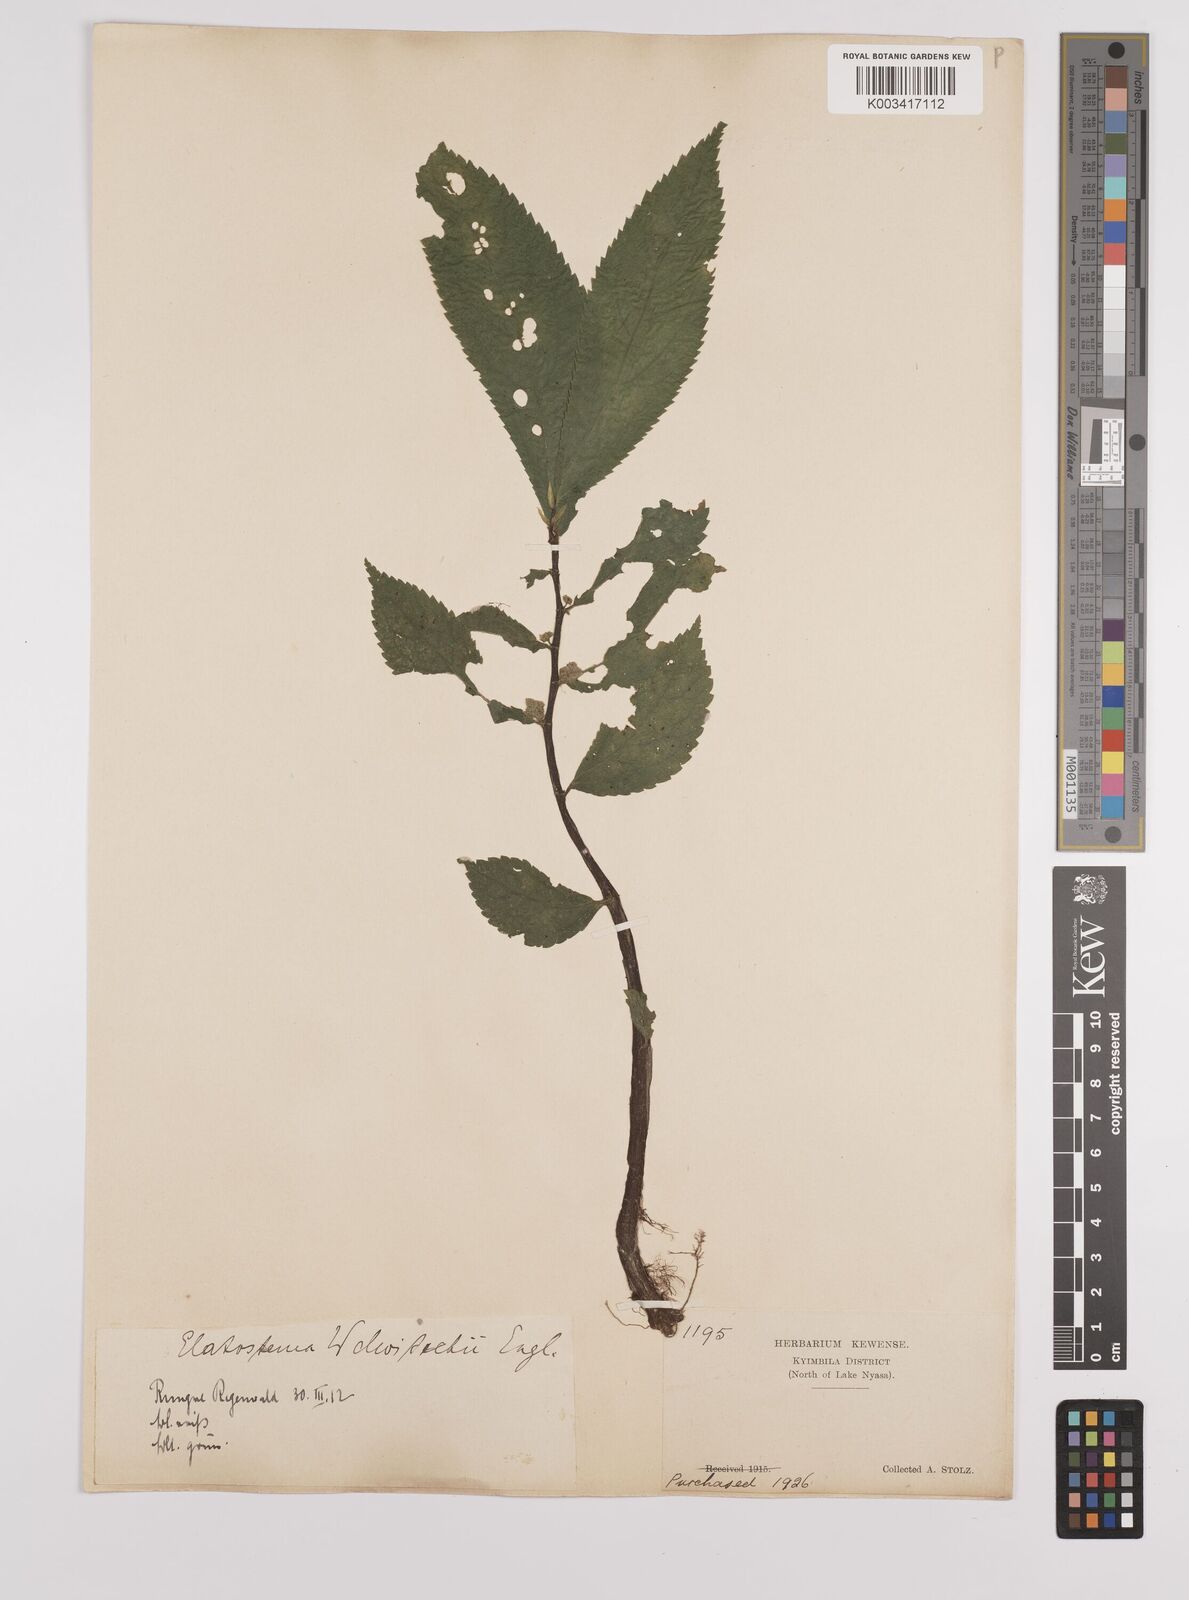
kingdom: Plantae
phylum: Tracheophyta
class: Magnoliopsida
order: Rosales
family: Urticaceae
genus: Elatostema
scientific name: Elatostema welwitschii
